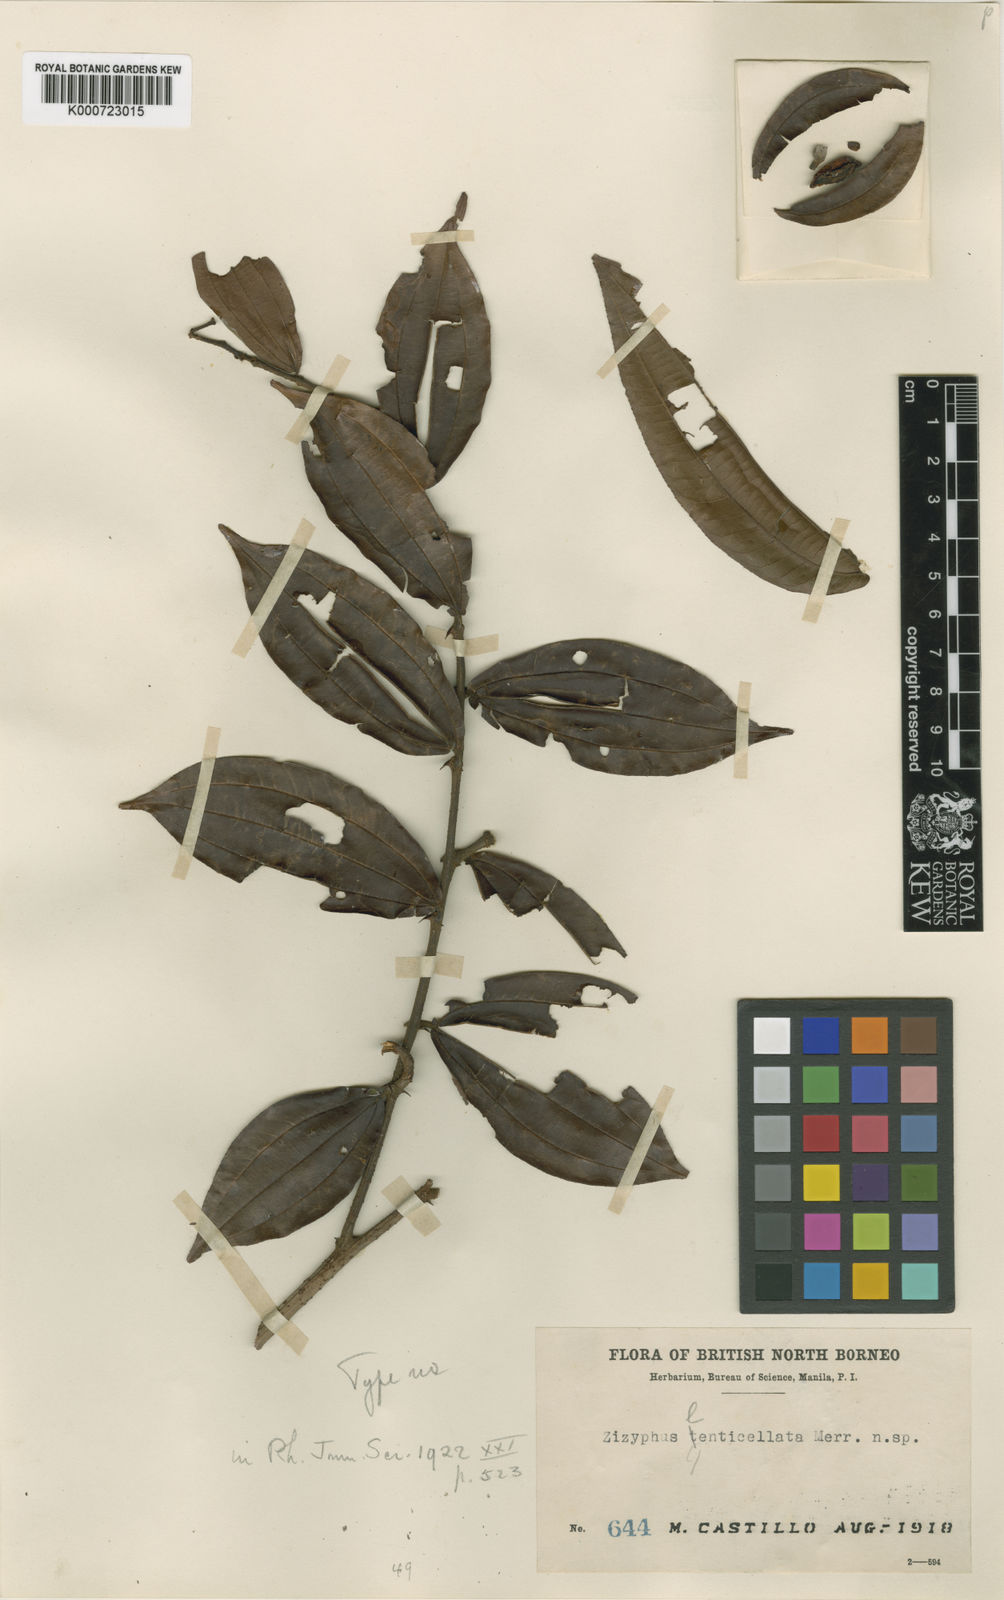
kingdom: Plantae
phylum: Tracheophyta
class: Magnoliopsida
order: Rosales
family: Rhamnaceae
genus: Ziziphus
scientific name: Ziziphus crebrivenosa
